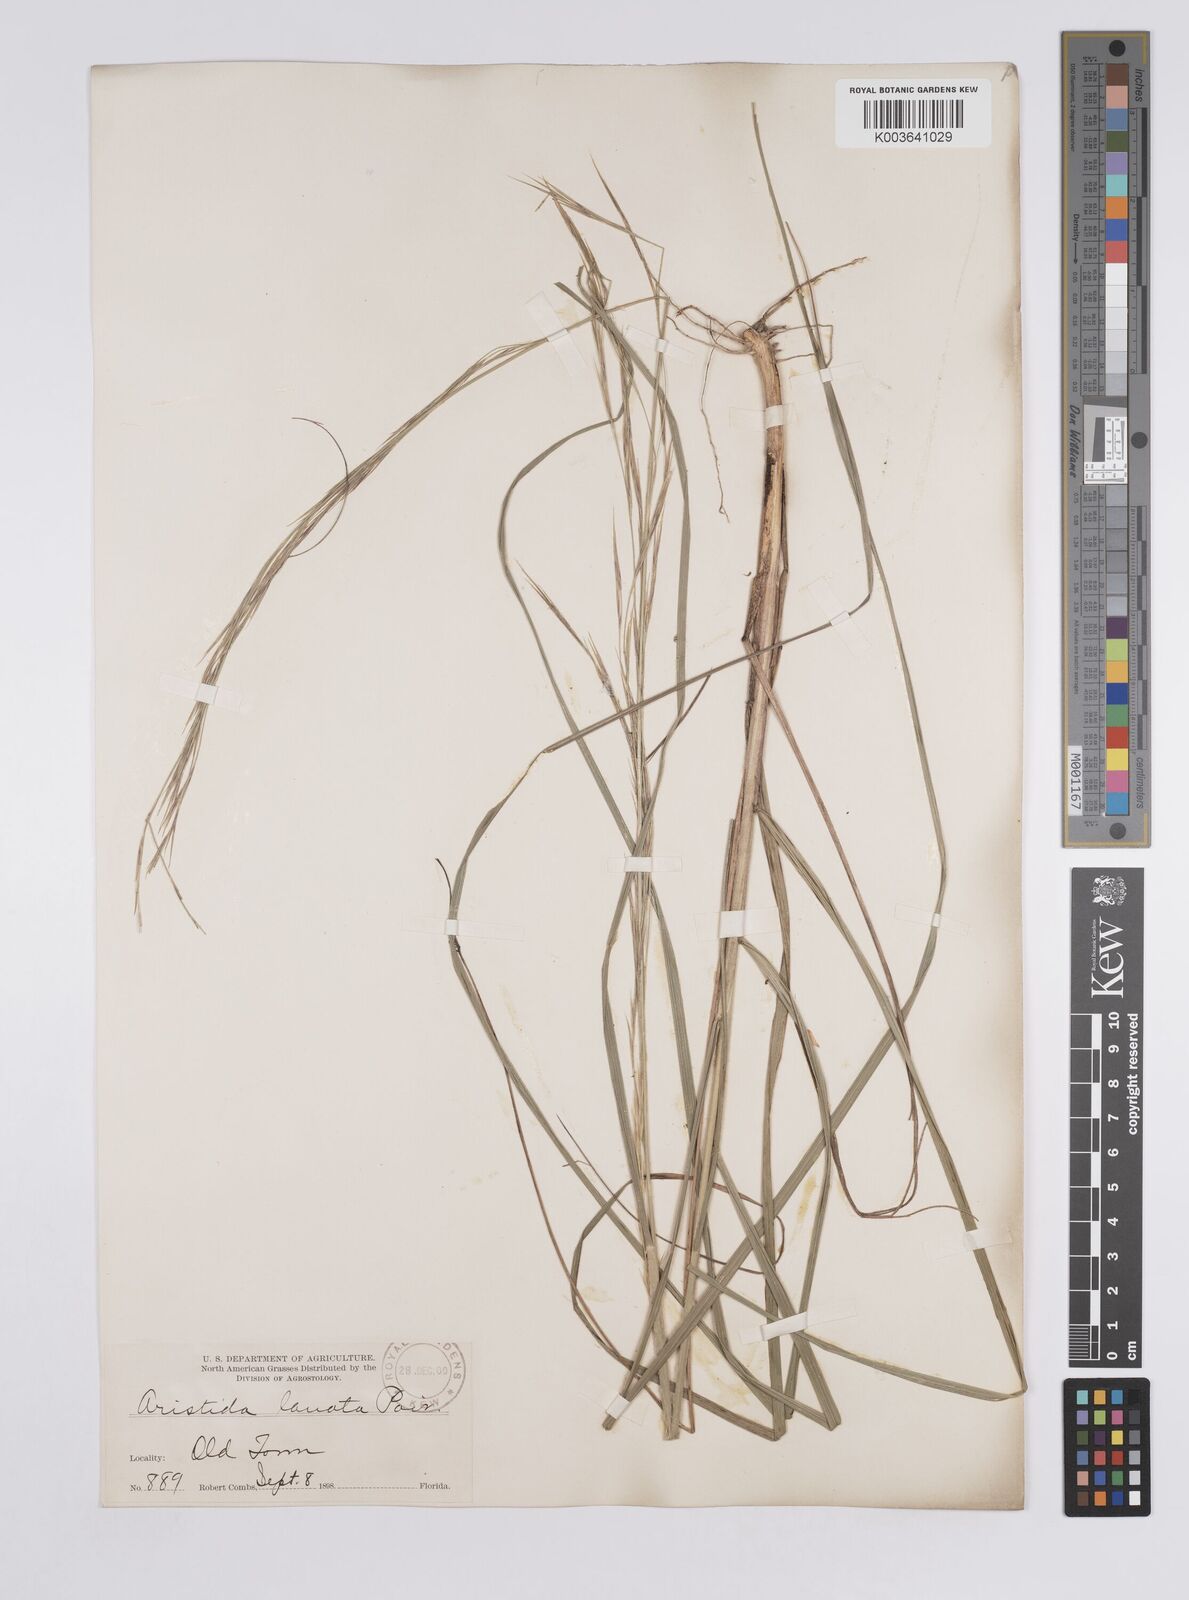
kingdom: Plantae
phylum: Tracheophyta
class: Liliopsida
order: Poales
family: Poaceae
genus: Aristida
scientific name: Aristida lanosa
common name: Woolly three-awn
